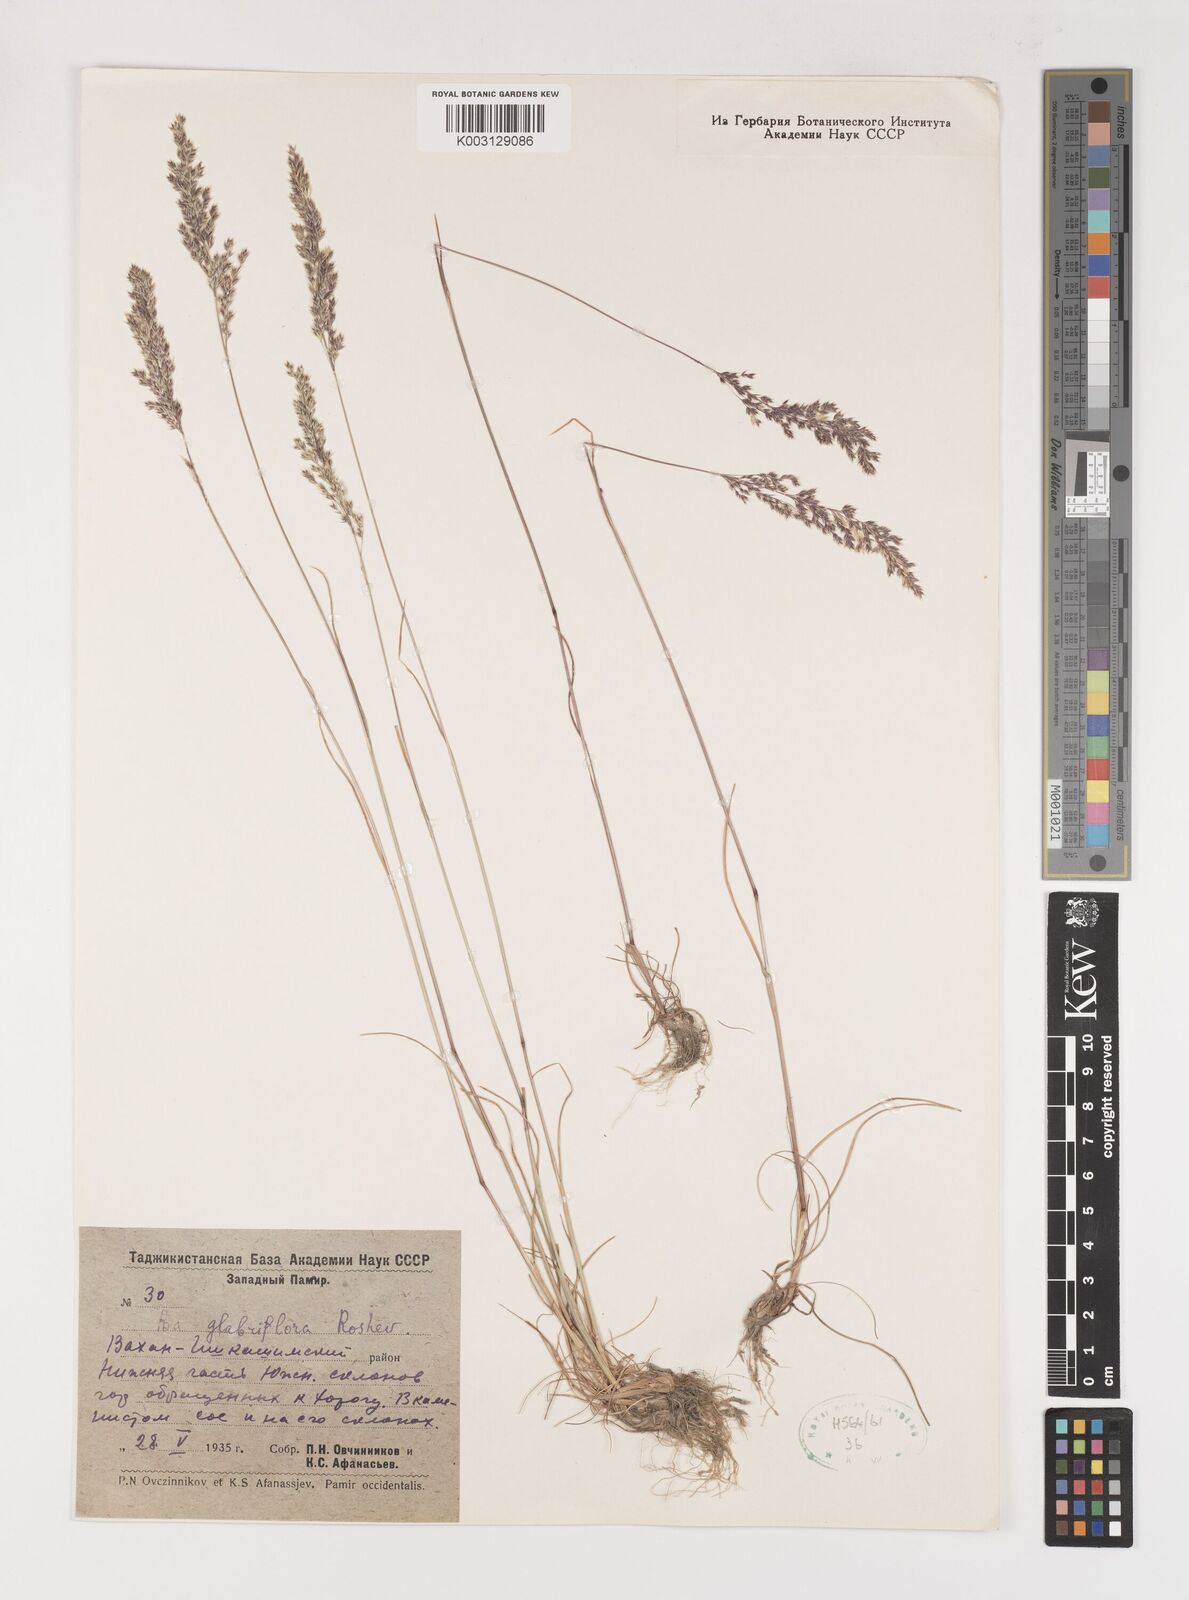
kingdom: Plantae
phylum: Tracheophyta
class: Liliopsida
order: Poales
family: Poaceae
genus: Poa
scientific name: Poa bactriana
